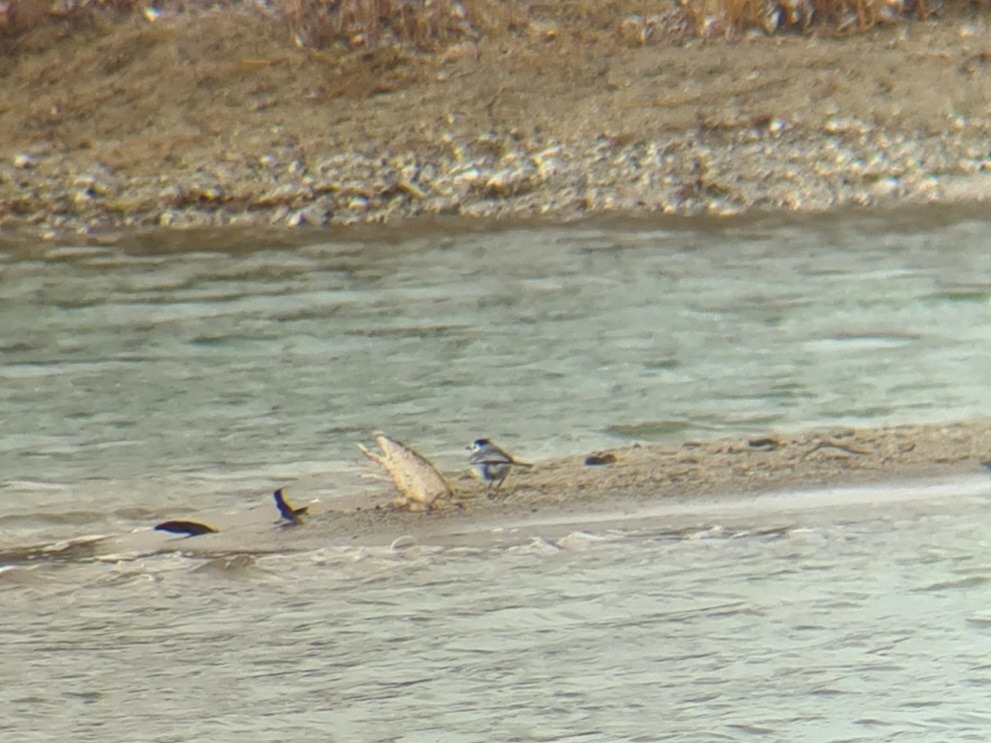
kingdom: Animalia
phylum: Chordata
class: Aves
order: Passeriformes
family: Motacillidae
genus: Motacilla
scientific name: Motacilla alba
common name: Hvid vipstjert
